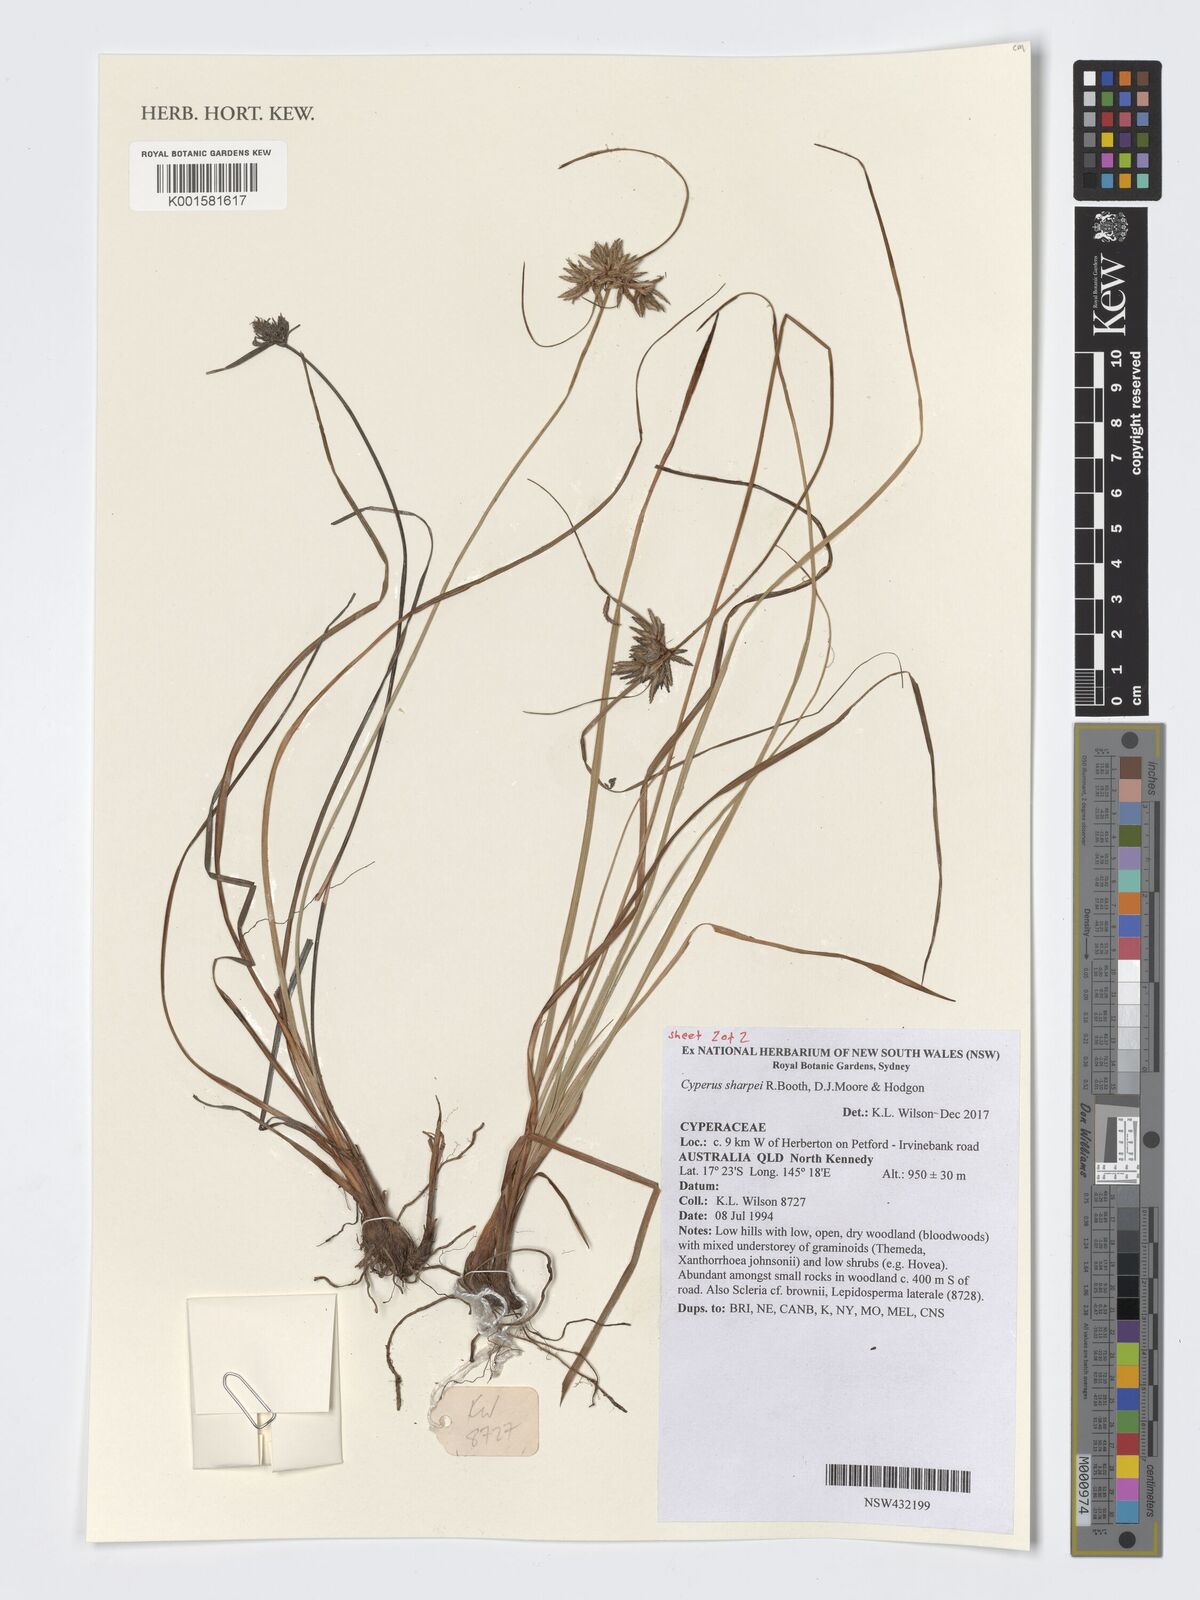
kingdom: Plantae
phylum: Tracheophyta
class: Liliopsida
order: Poales
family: Cyperaceae
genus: Cyperus
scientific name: Cyperus sharpei
